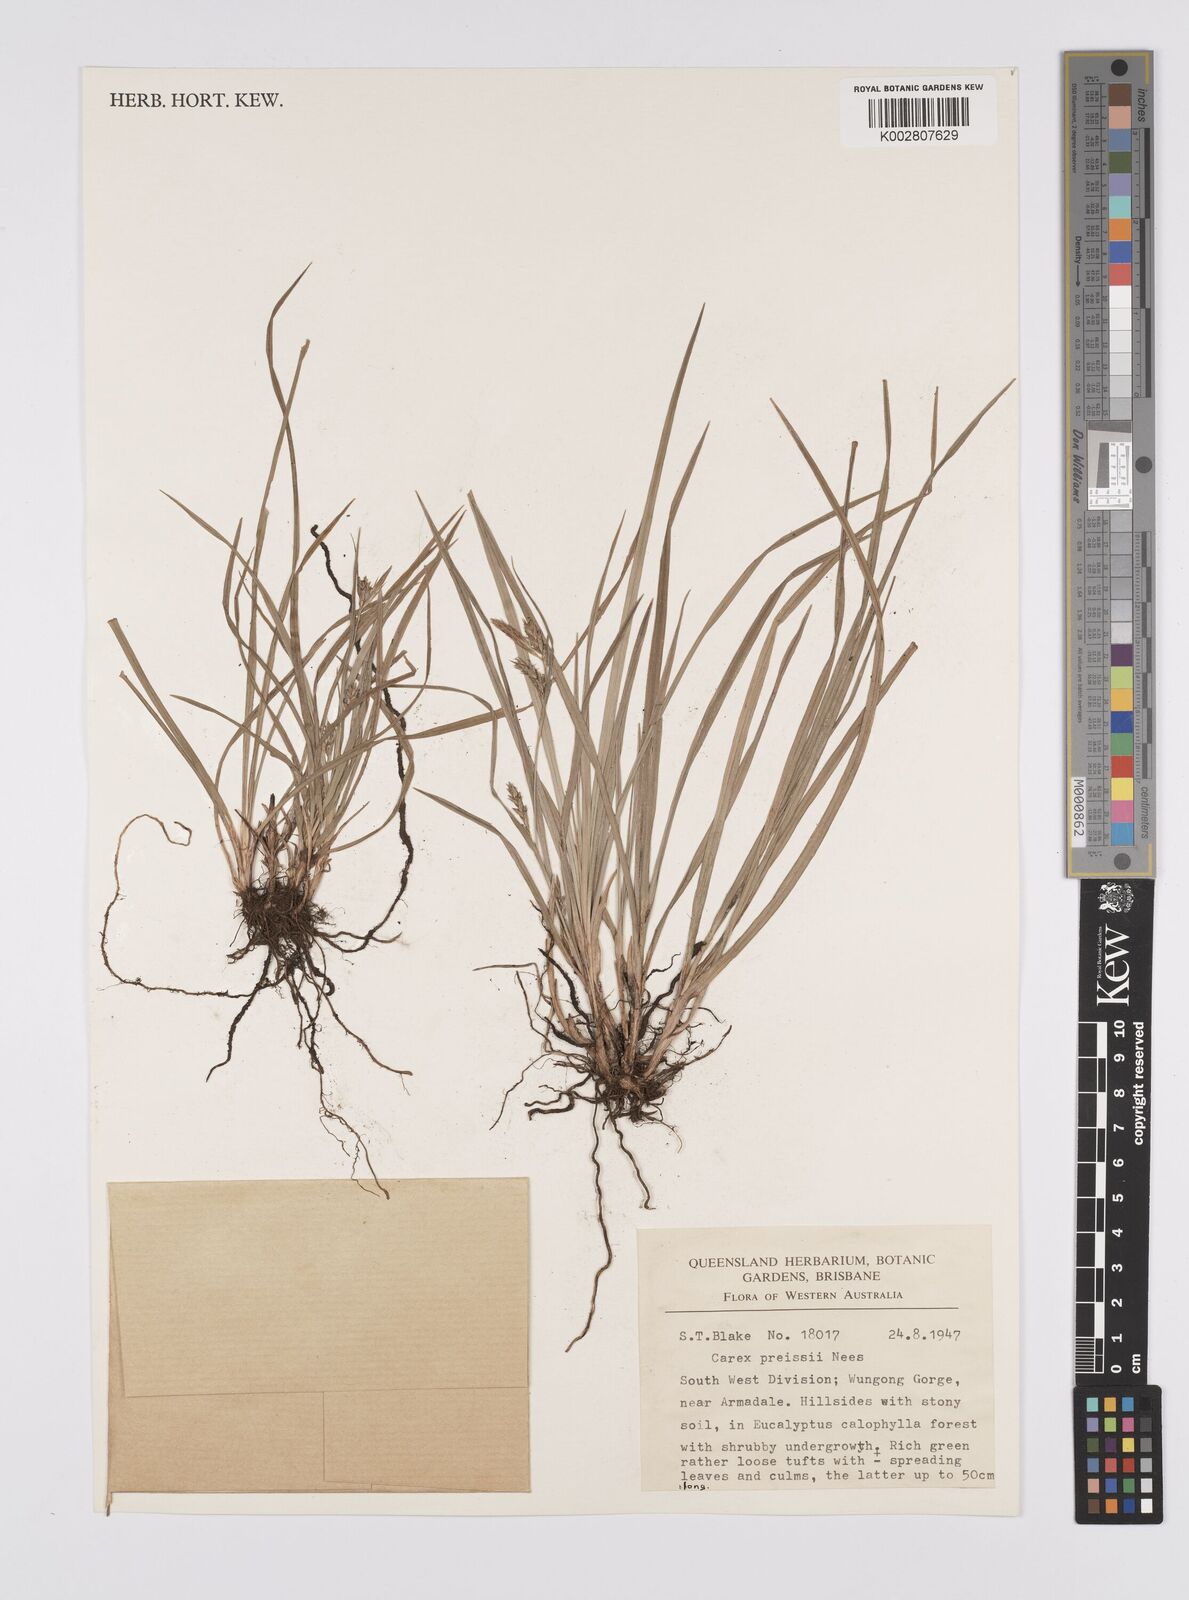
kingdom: Plantae
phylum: Tracheophyta
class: Liliopsida
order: Poales
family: Cyperaceae
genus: Carex
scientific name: Carex preissii
